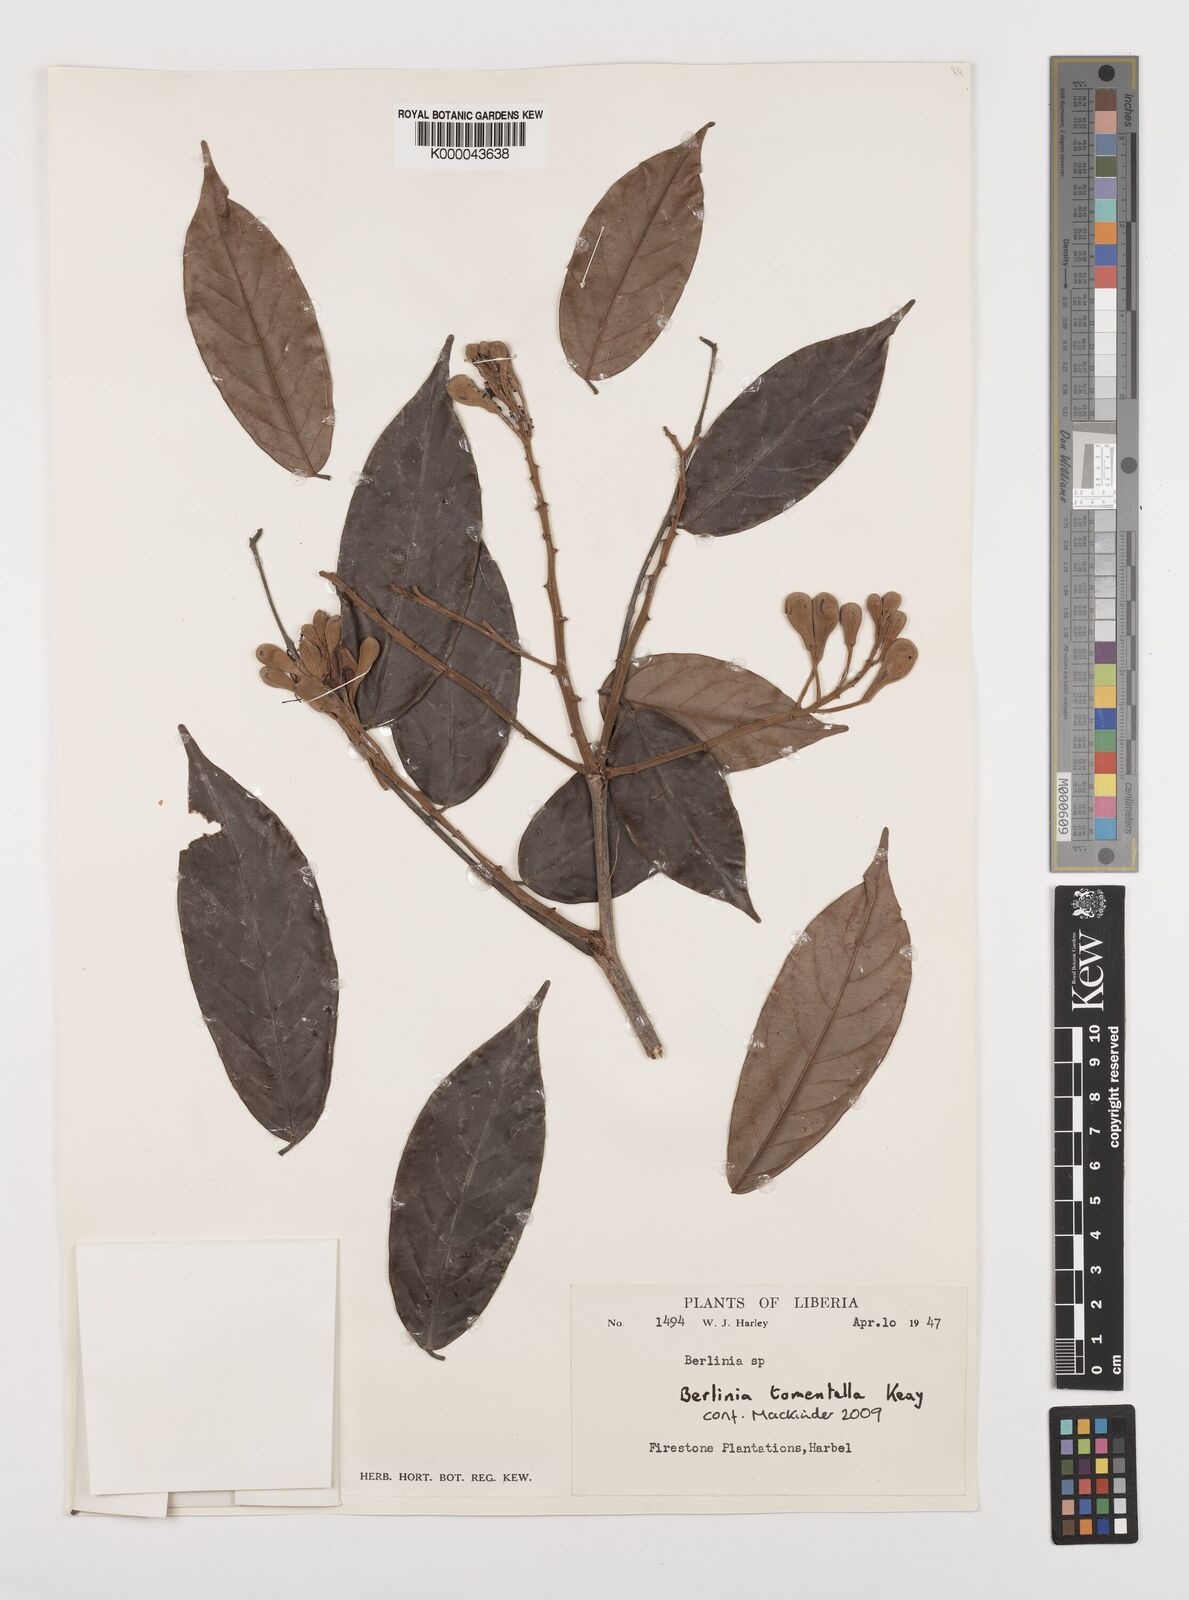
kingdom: Plantae
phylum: Tracheophyta
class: Magnoliopsida
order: Fabales
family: Fabaceae
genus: Berlinia
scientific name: Berlinia tomentella
